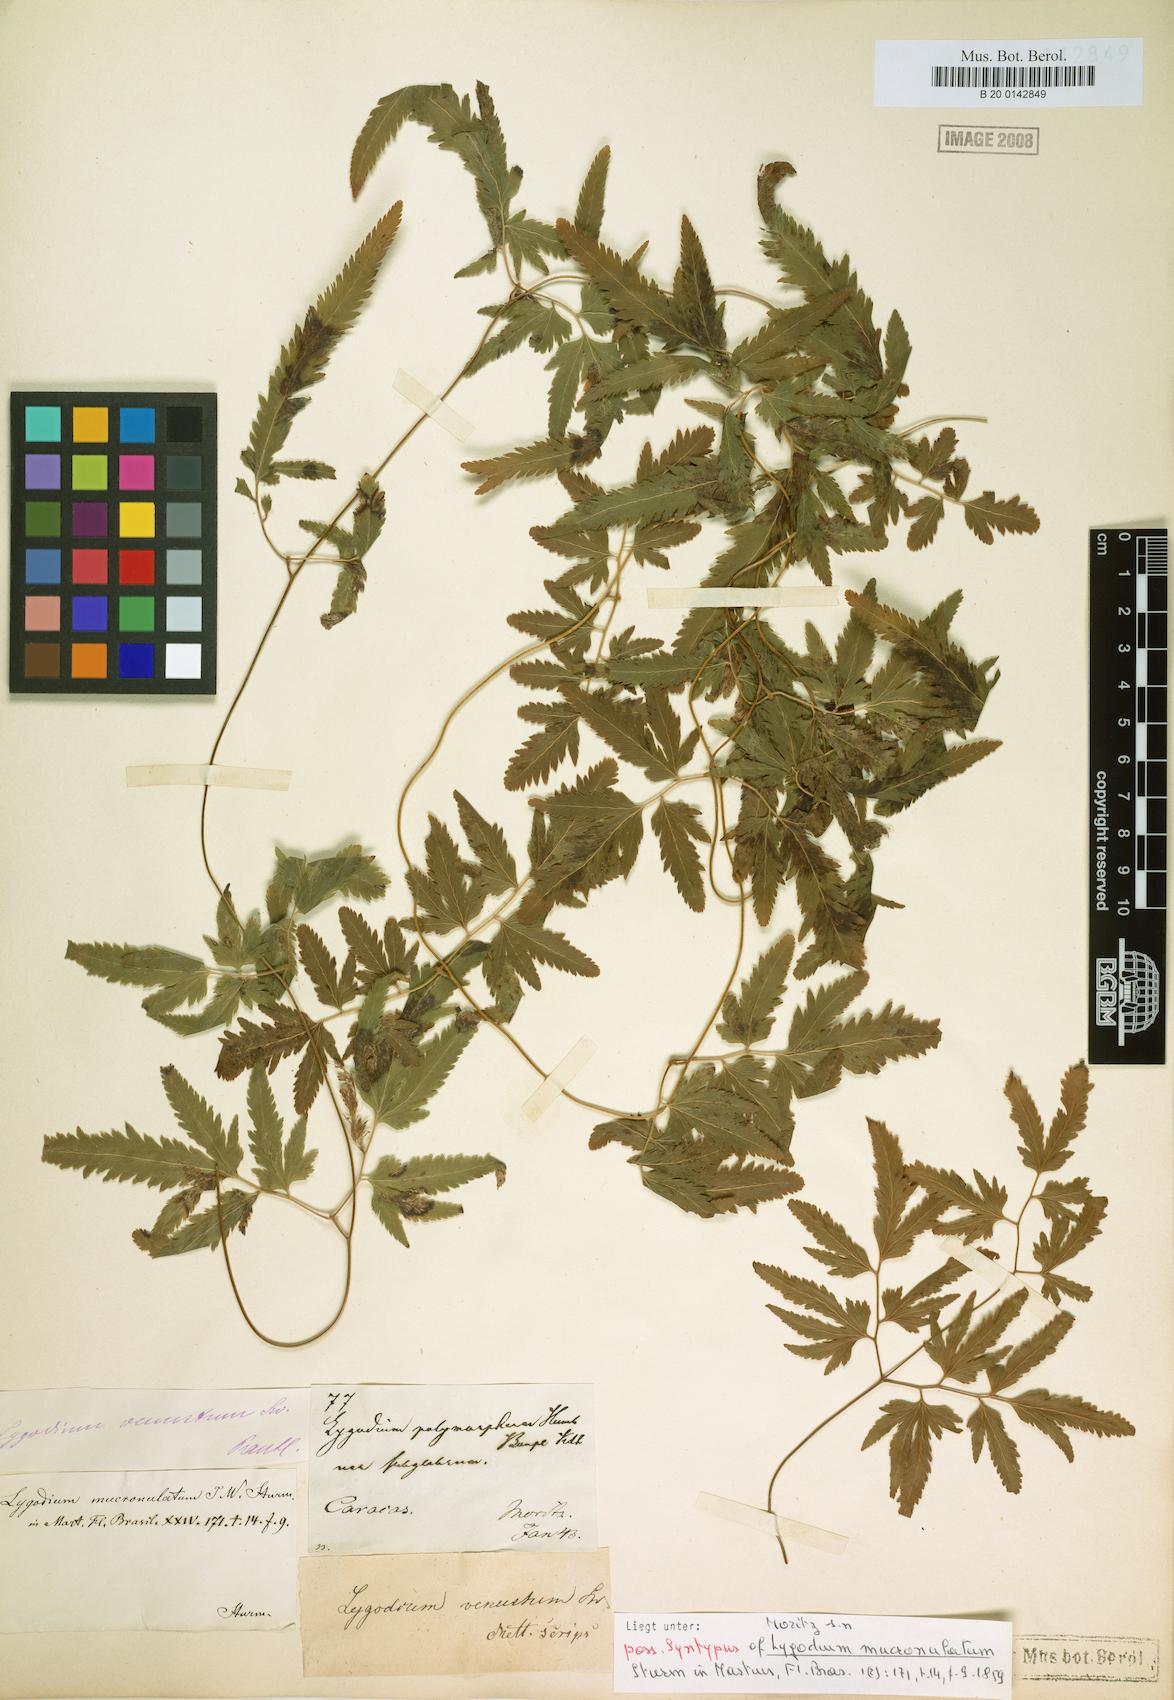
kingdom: Plantae
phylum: Tracheophyta
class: Polypodiopsida
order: Schizaeales
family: Lygodiaceae
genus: Lygodium
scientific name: Lygodium venustum
